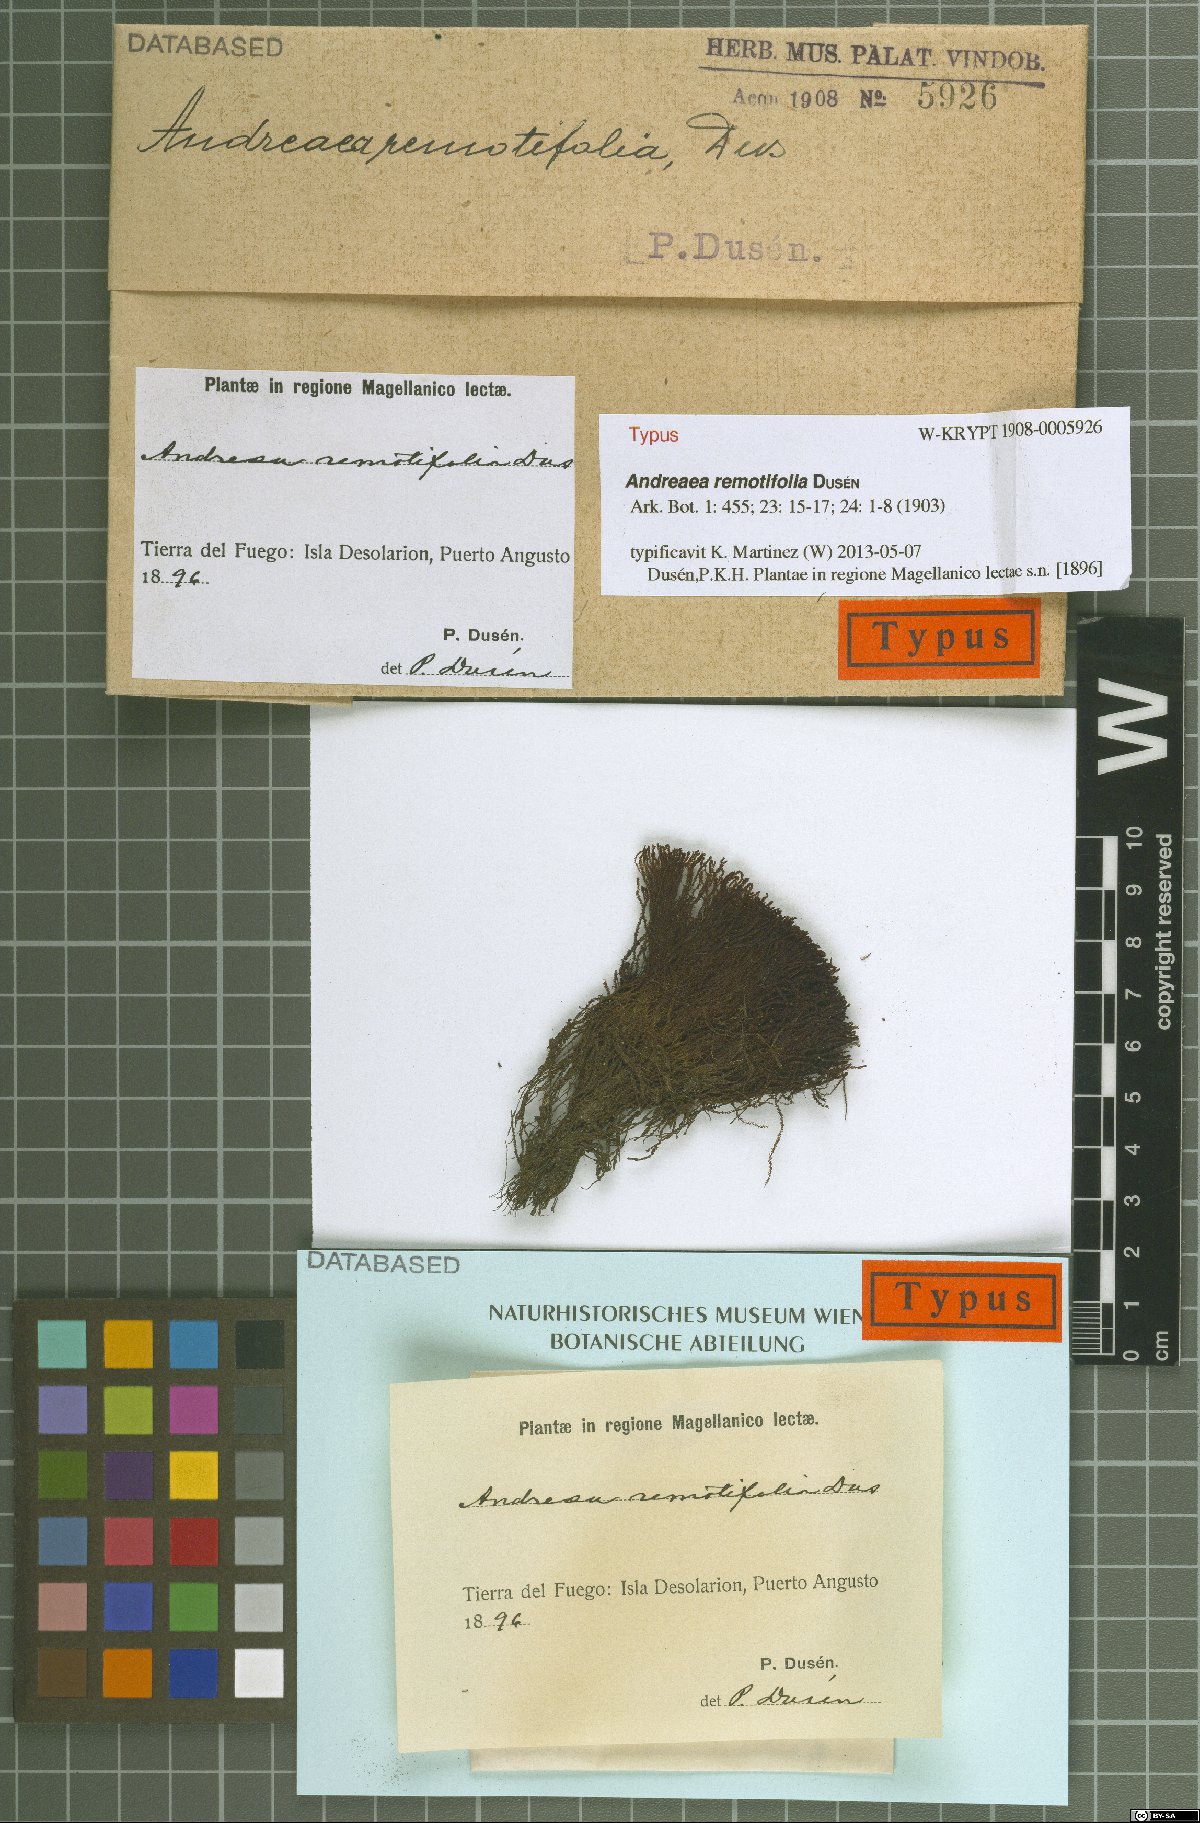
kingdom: Plantae
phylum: Bryophyta
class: Andreaeopsida
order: Andreaeales
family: Andreaeaceae
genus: Andreaea
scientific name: Andreaea remotifolia
